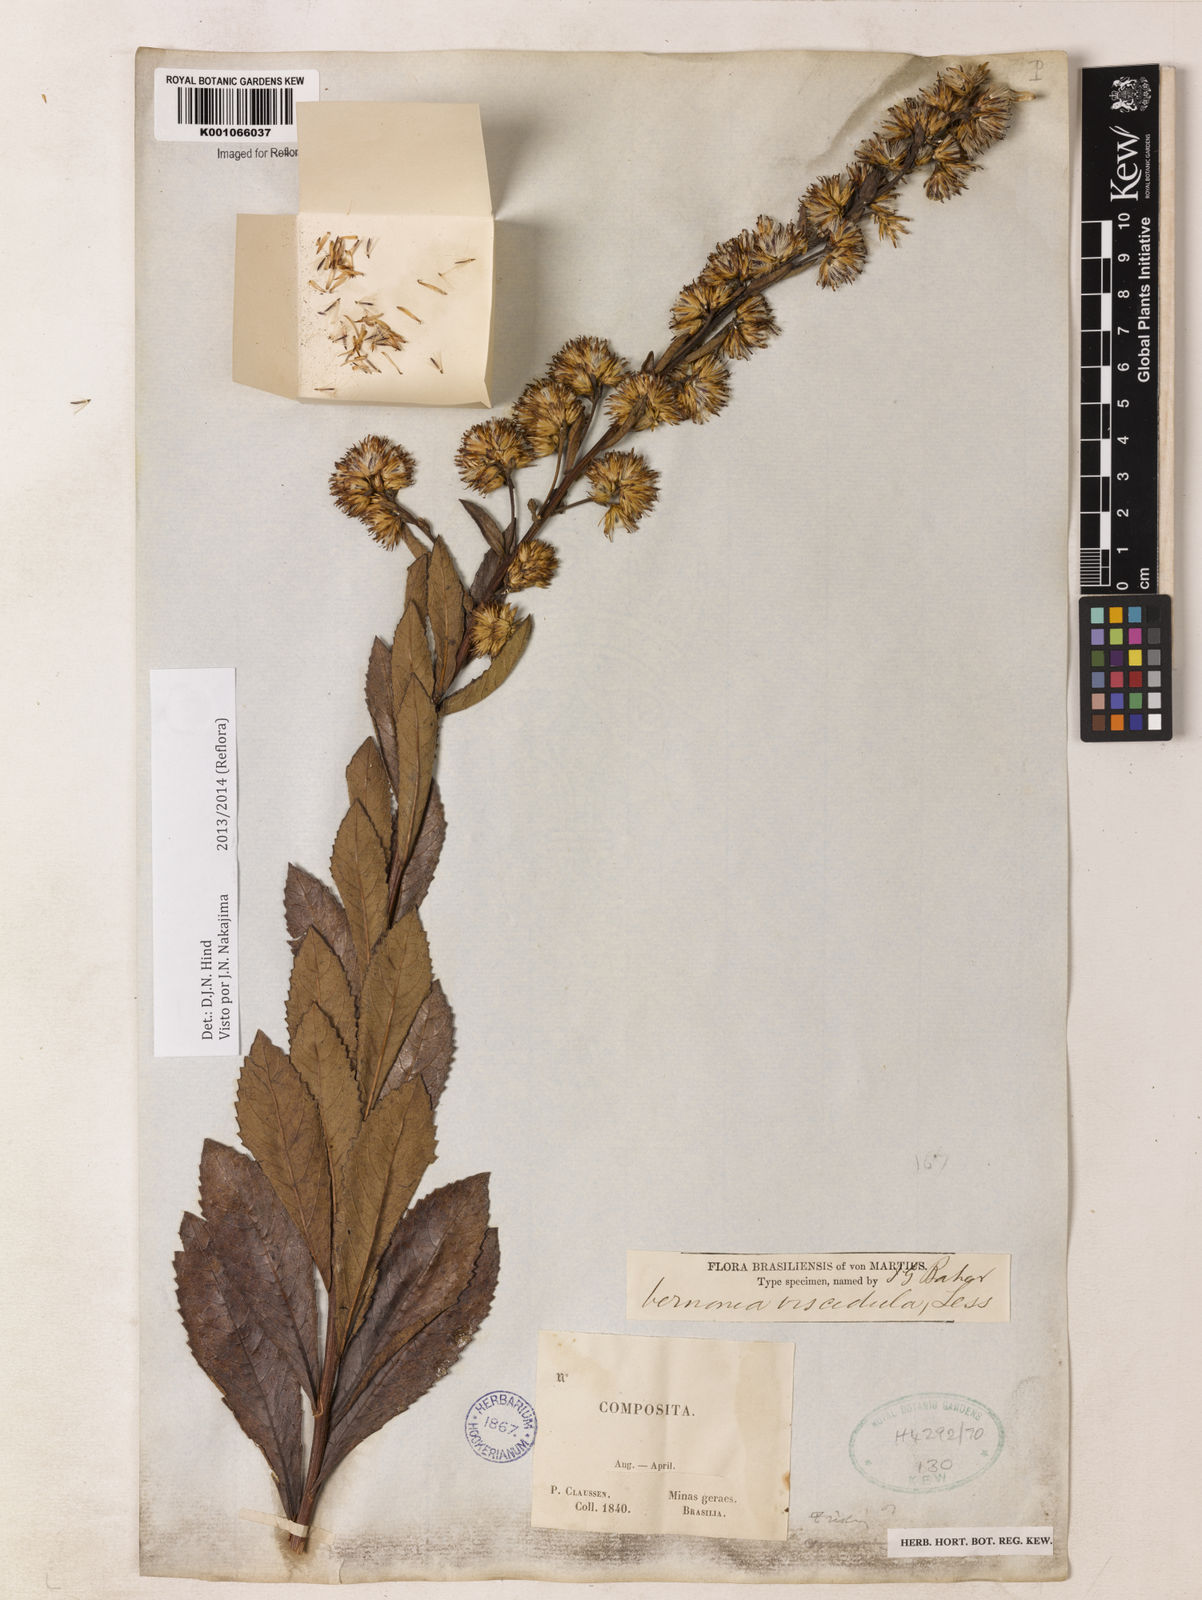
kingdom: Plantae
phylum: Tracheophyta
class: Magnoliopsida
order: Asterales
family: Asteraceae
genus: Vernonanthura
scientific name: Vernonanthura viscidula
